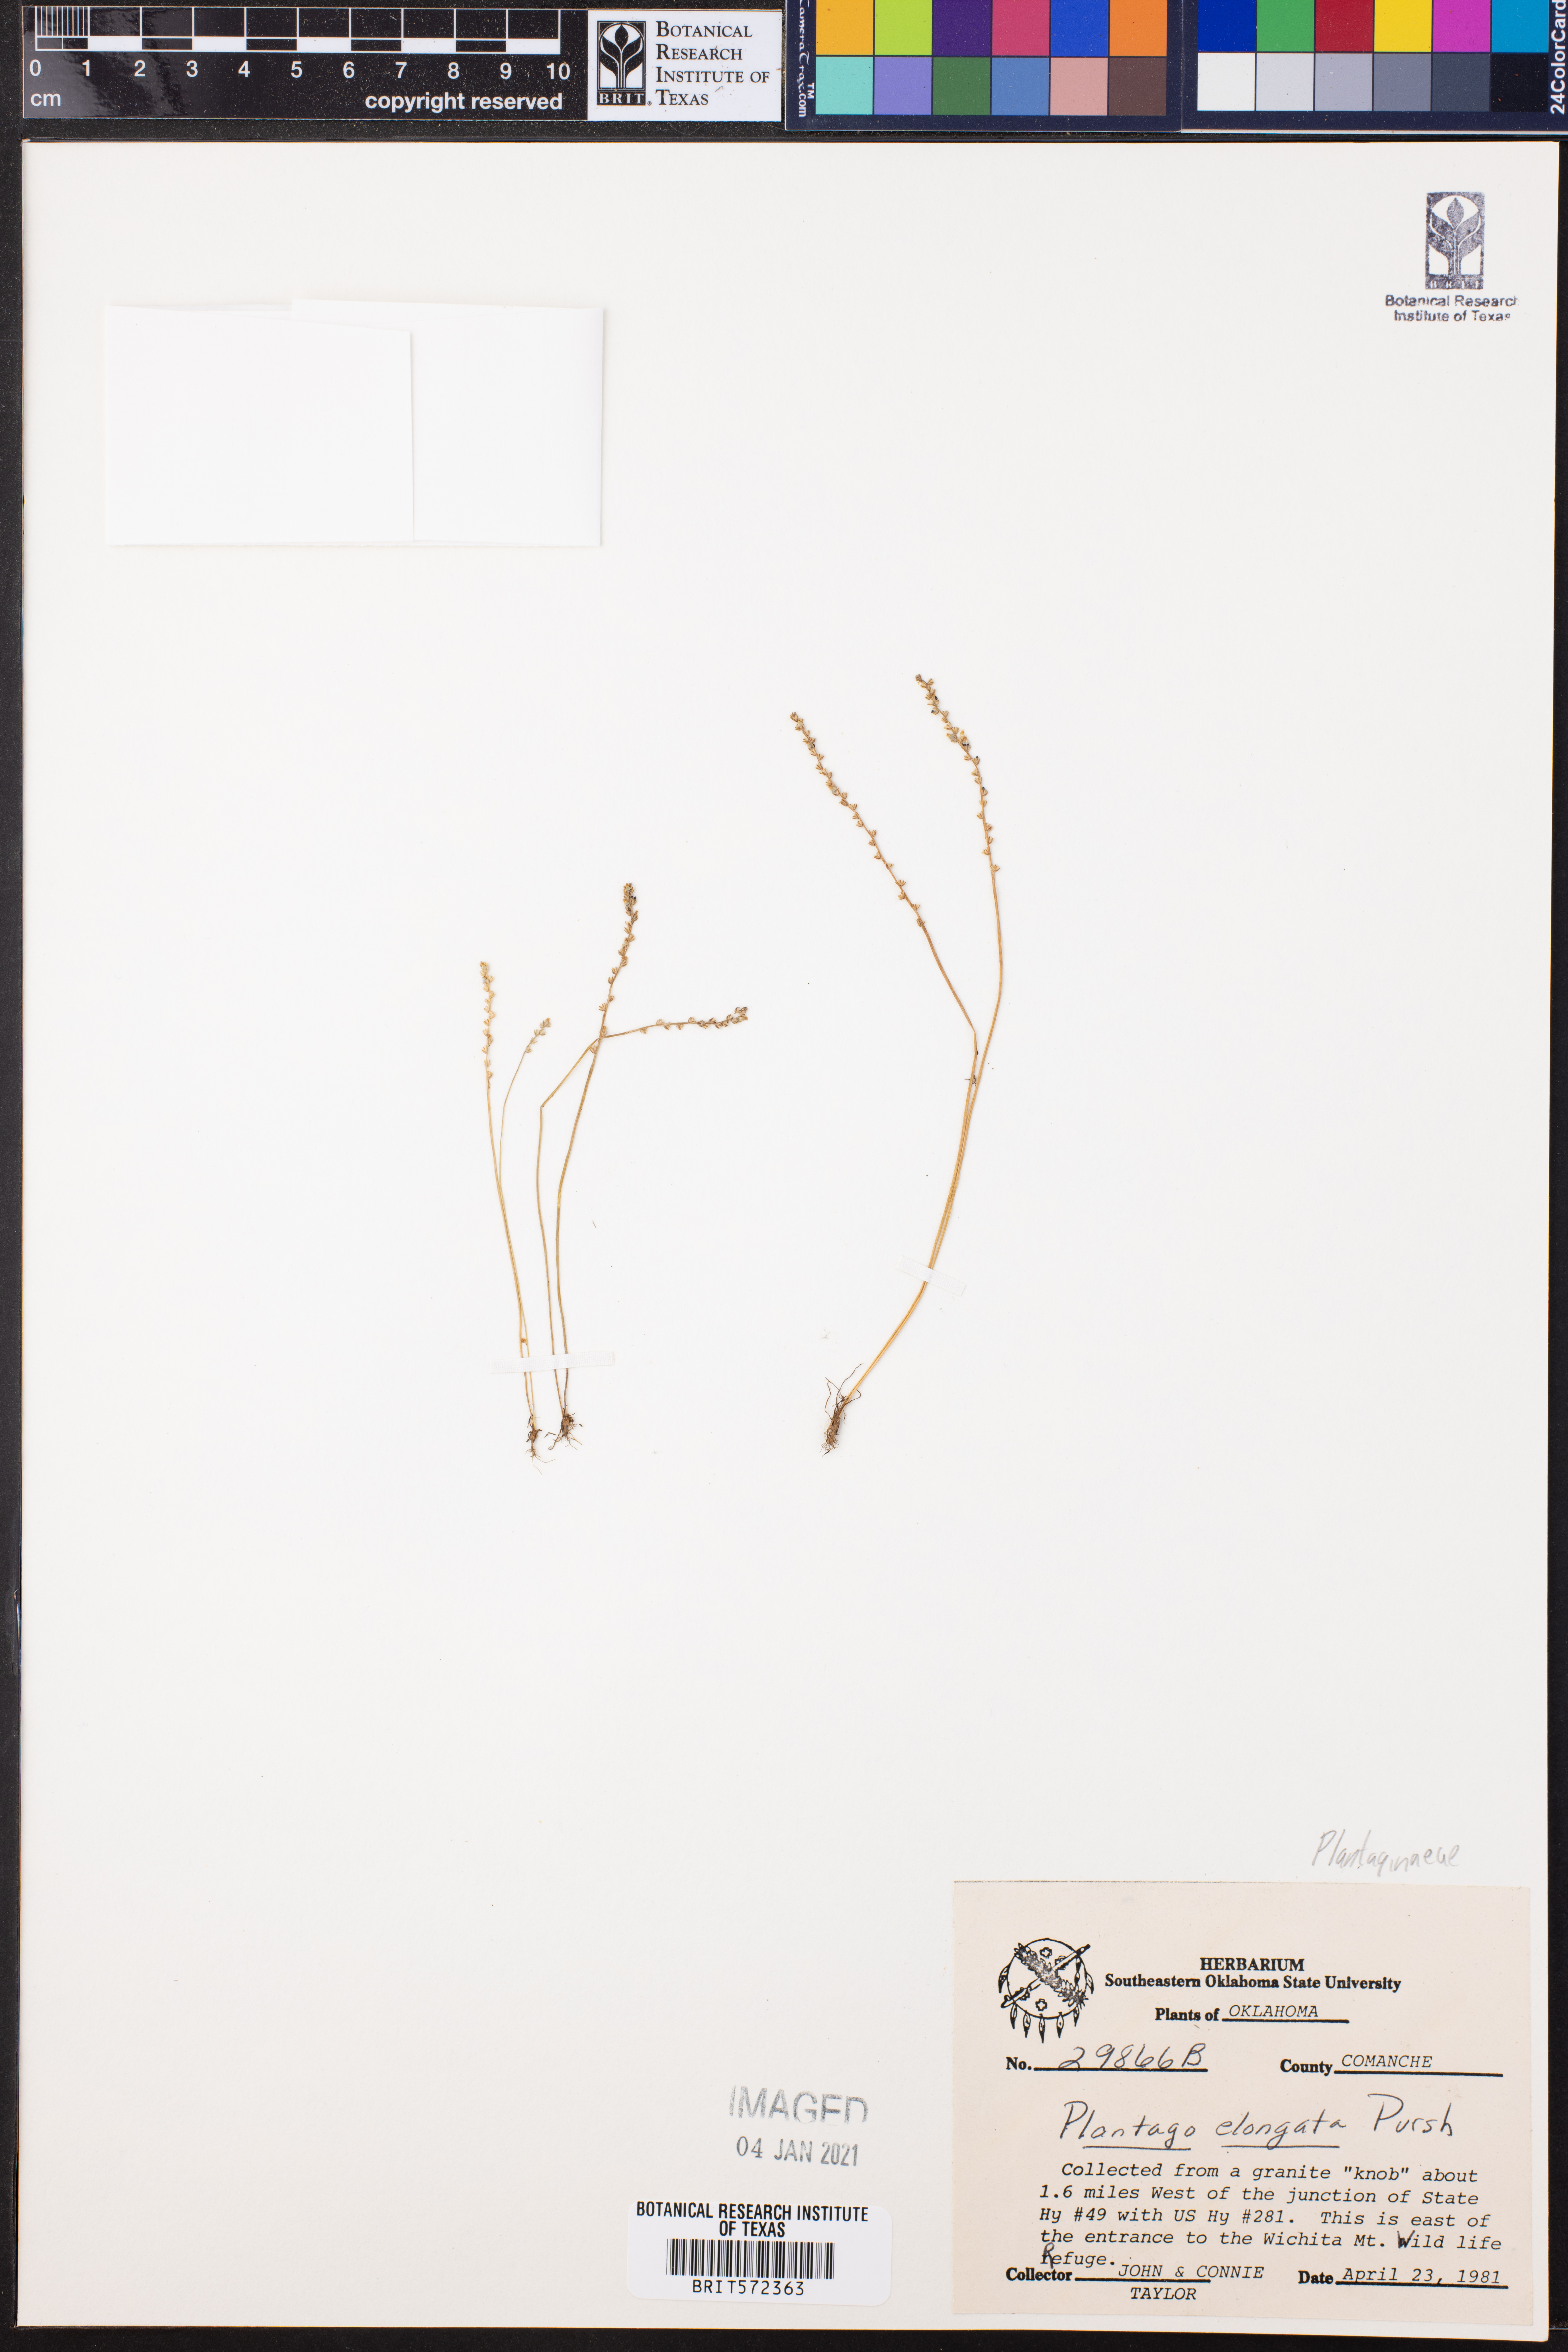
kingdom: Plantae
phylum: Tracheophyta
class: Magnoliopsida
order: Lamiales
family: Plantaginaceae
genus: Plantago
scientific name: Plantago elongata
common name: Linear-leaved plantain
